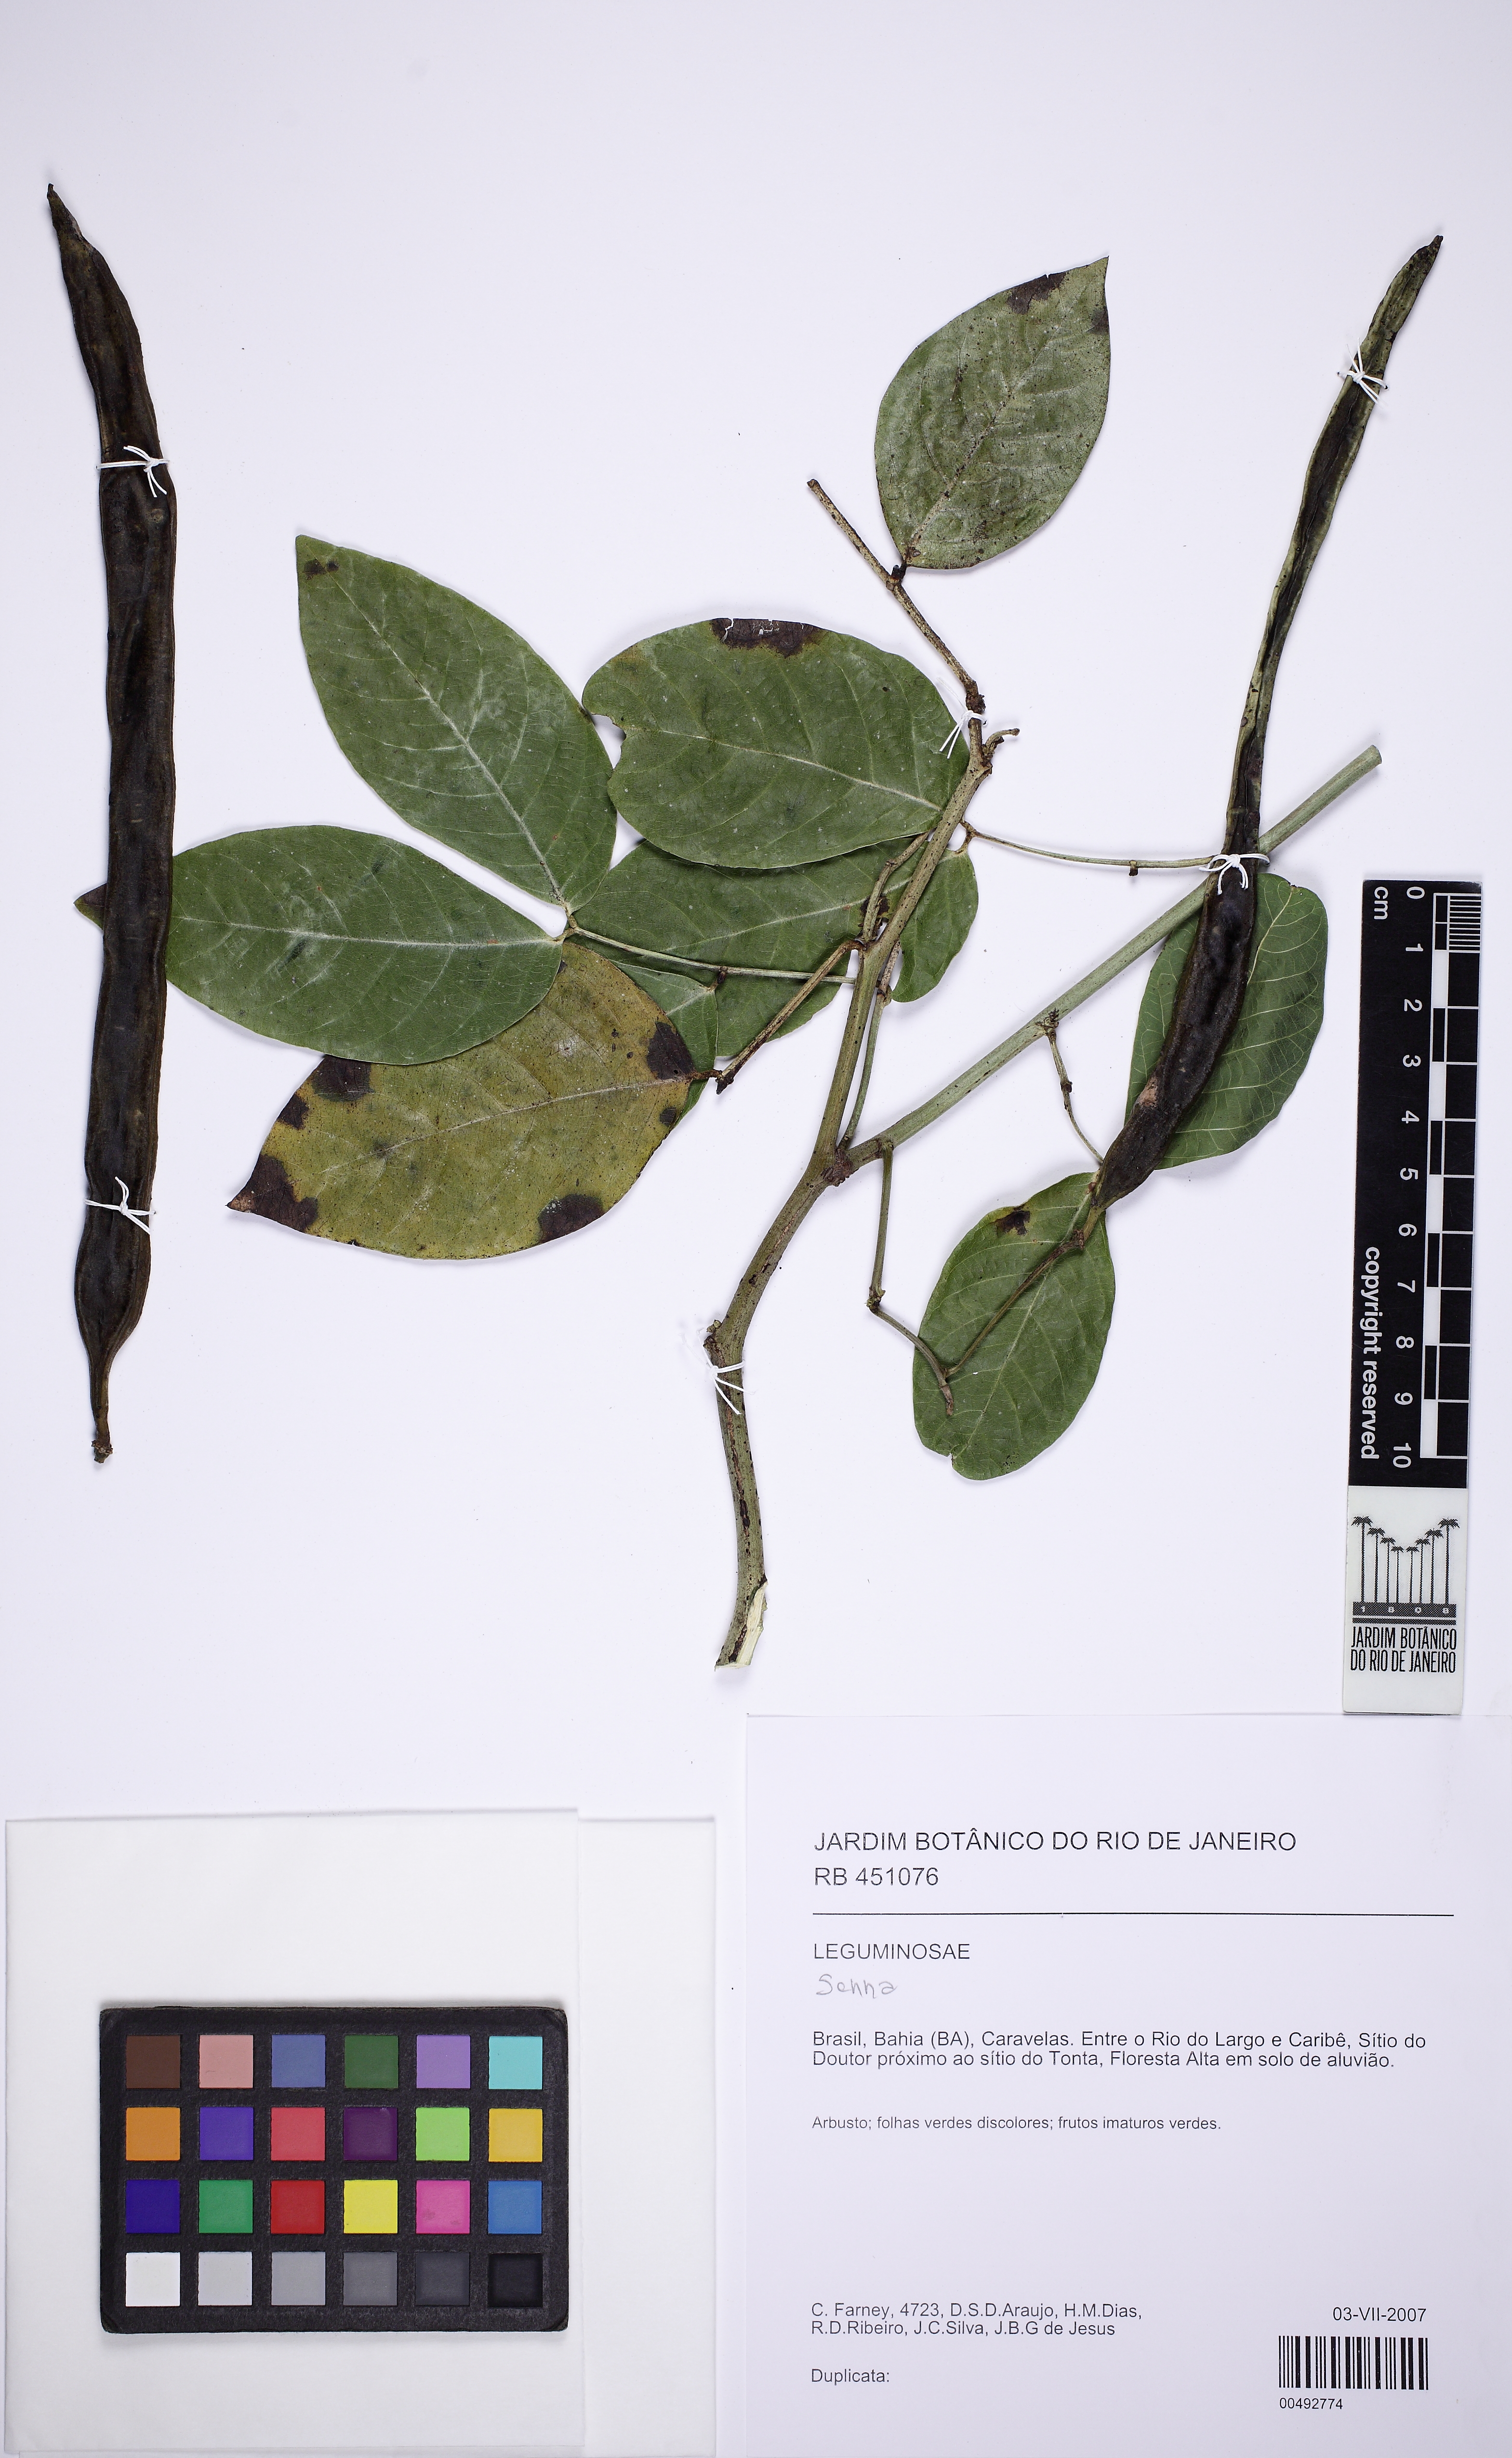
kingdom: Plantae
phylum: Tracheophyta
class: Magnoliopsida
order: Fabales
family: Fabaceae
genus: Senna
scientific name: Senna affinis
